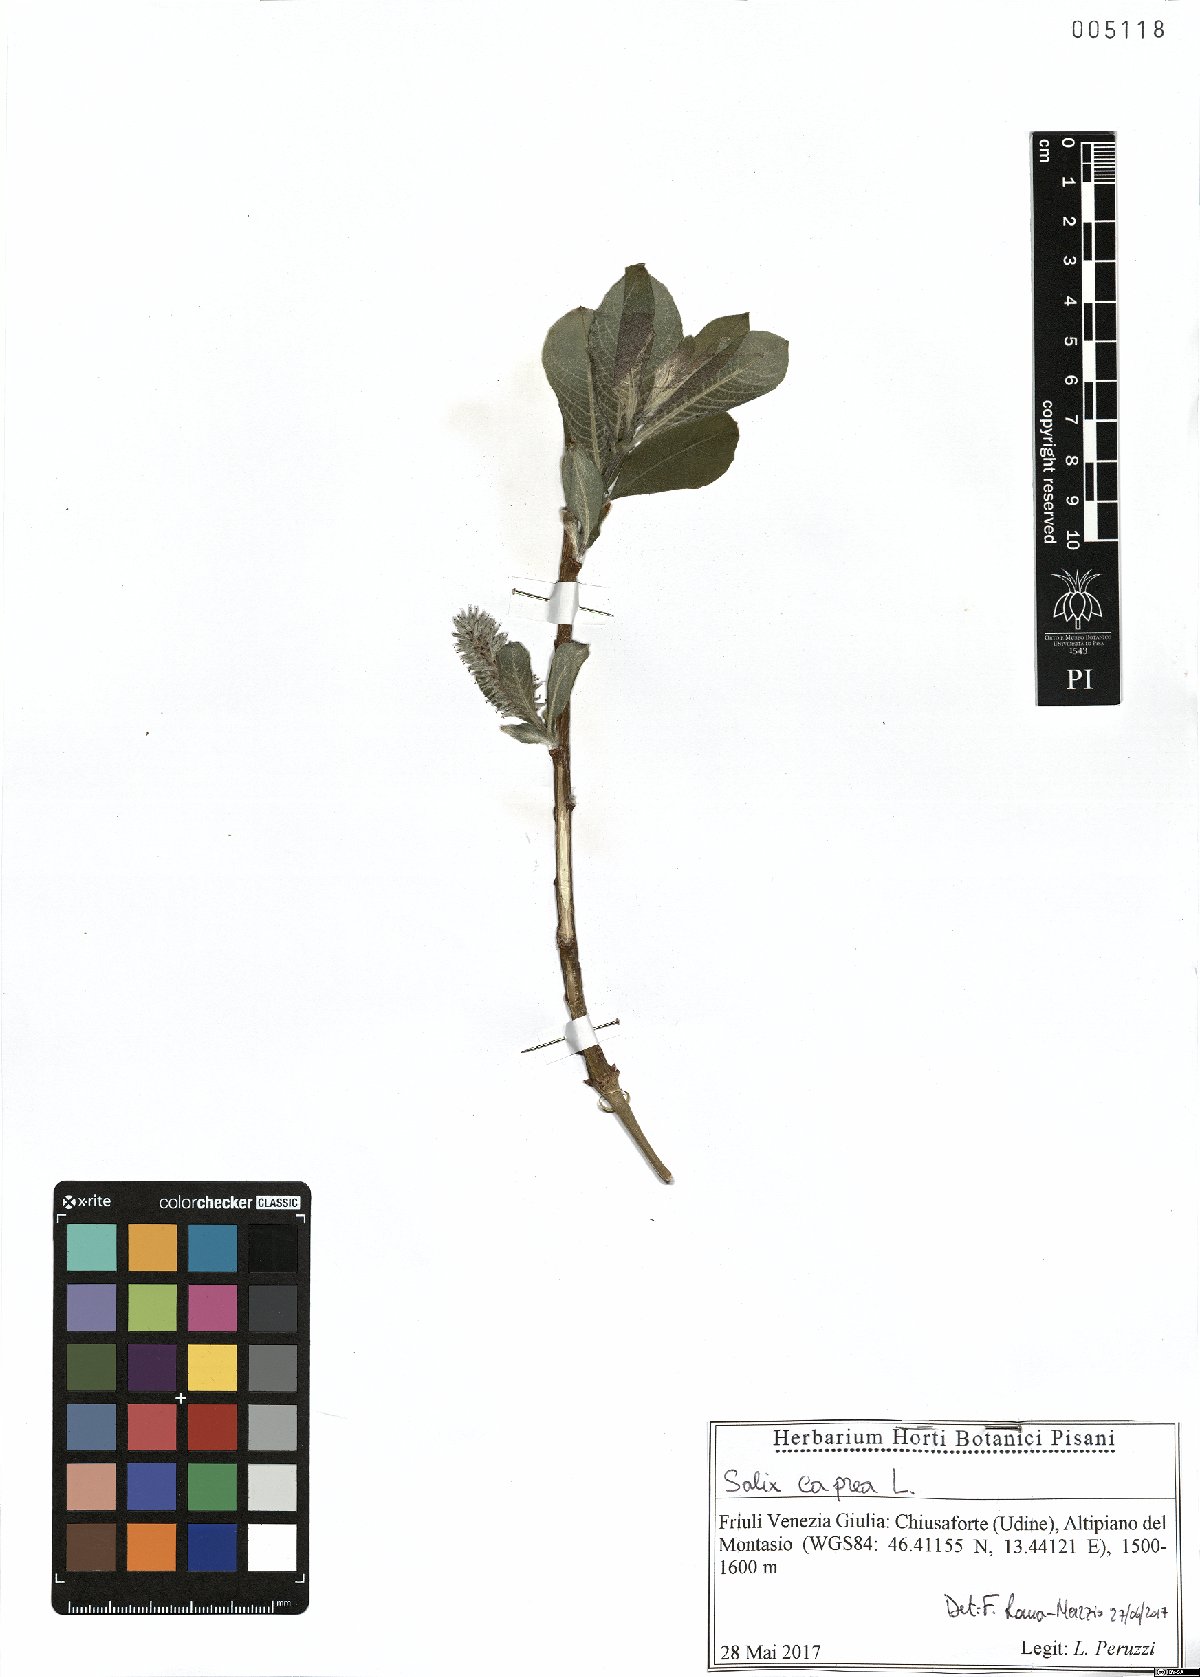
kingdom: Plantae
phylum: Tracheophyta
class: Magnoliopsida
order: Malpighiales
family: Salicaceae
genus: Salix
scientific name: Salix caprea
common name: Goat willow
